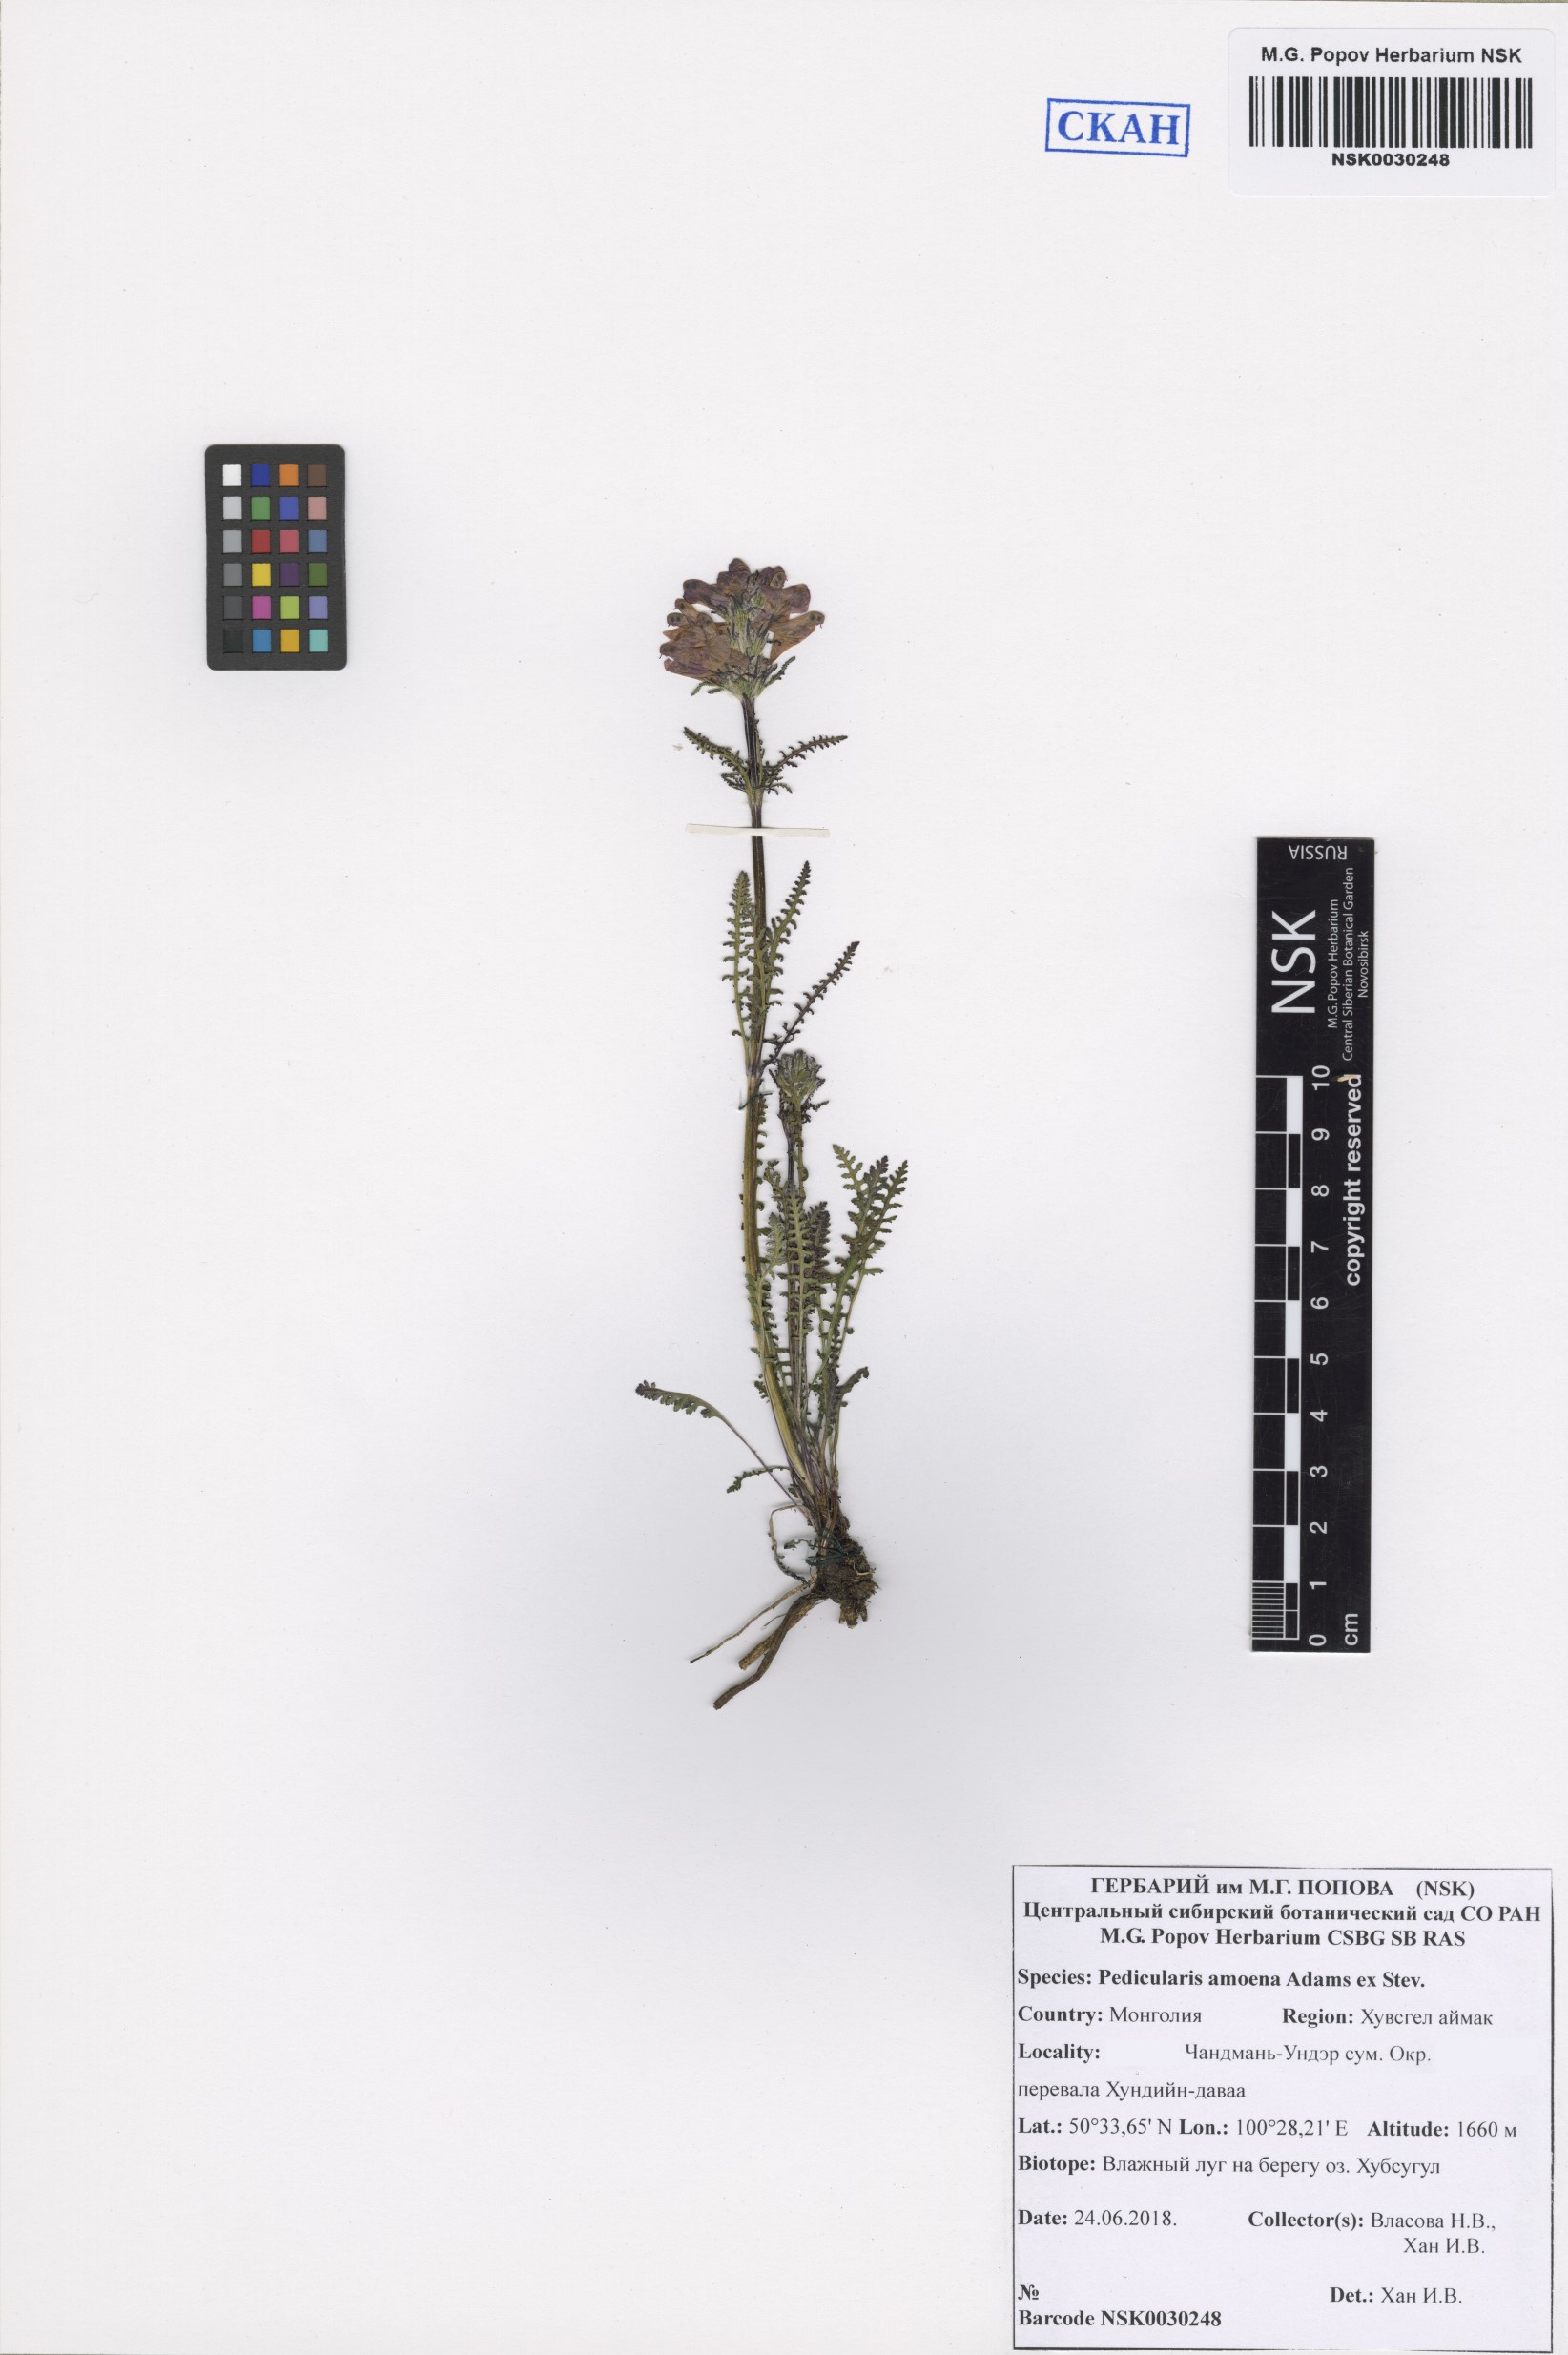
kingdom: Plantae
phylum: Tracheophyta
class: Magnoliopsida
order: Lamiales
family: Orobanchaceae
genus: Pedicularis
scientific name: Pedicularis amoena
